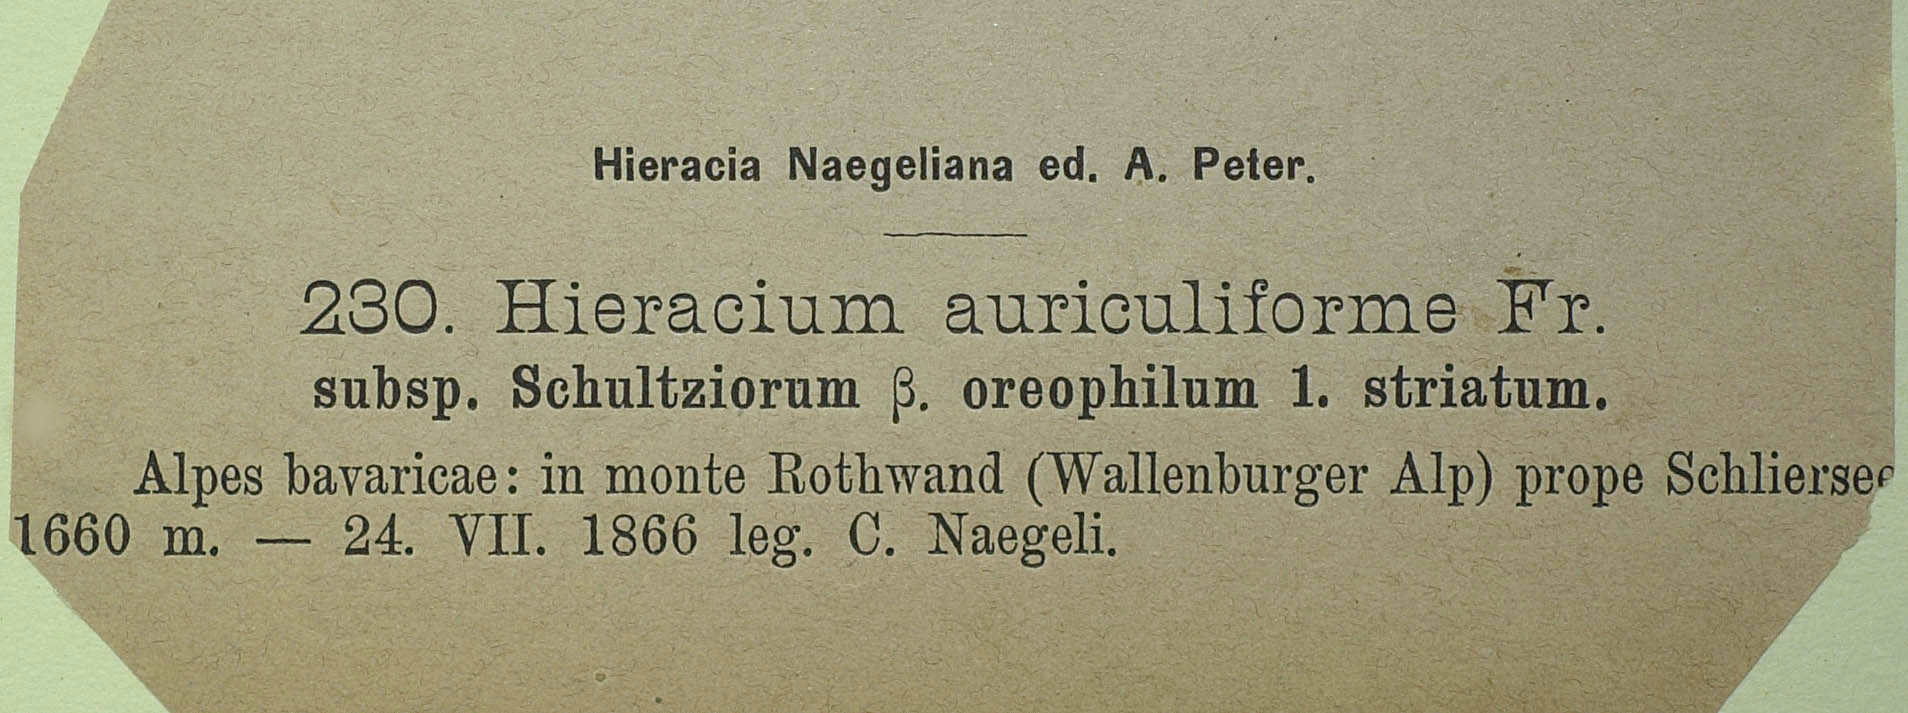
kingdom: Plantae
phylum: Tracheophyta
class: Magnoliopsida
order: Asterales
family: Asteraceae
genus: Pilosella
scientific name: Pilosella schultesii
